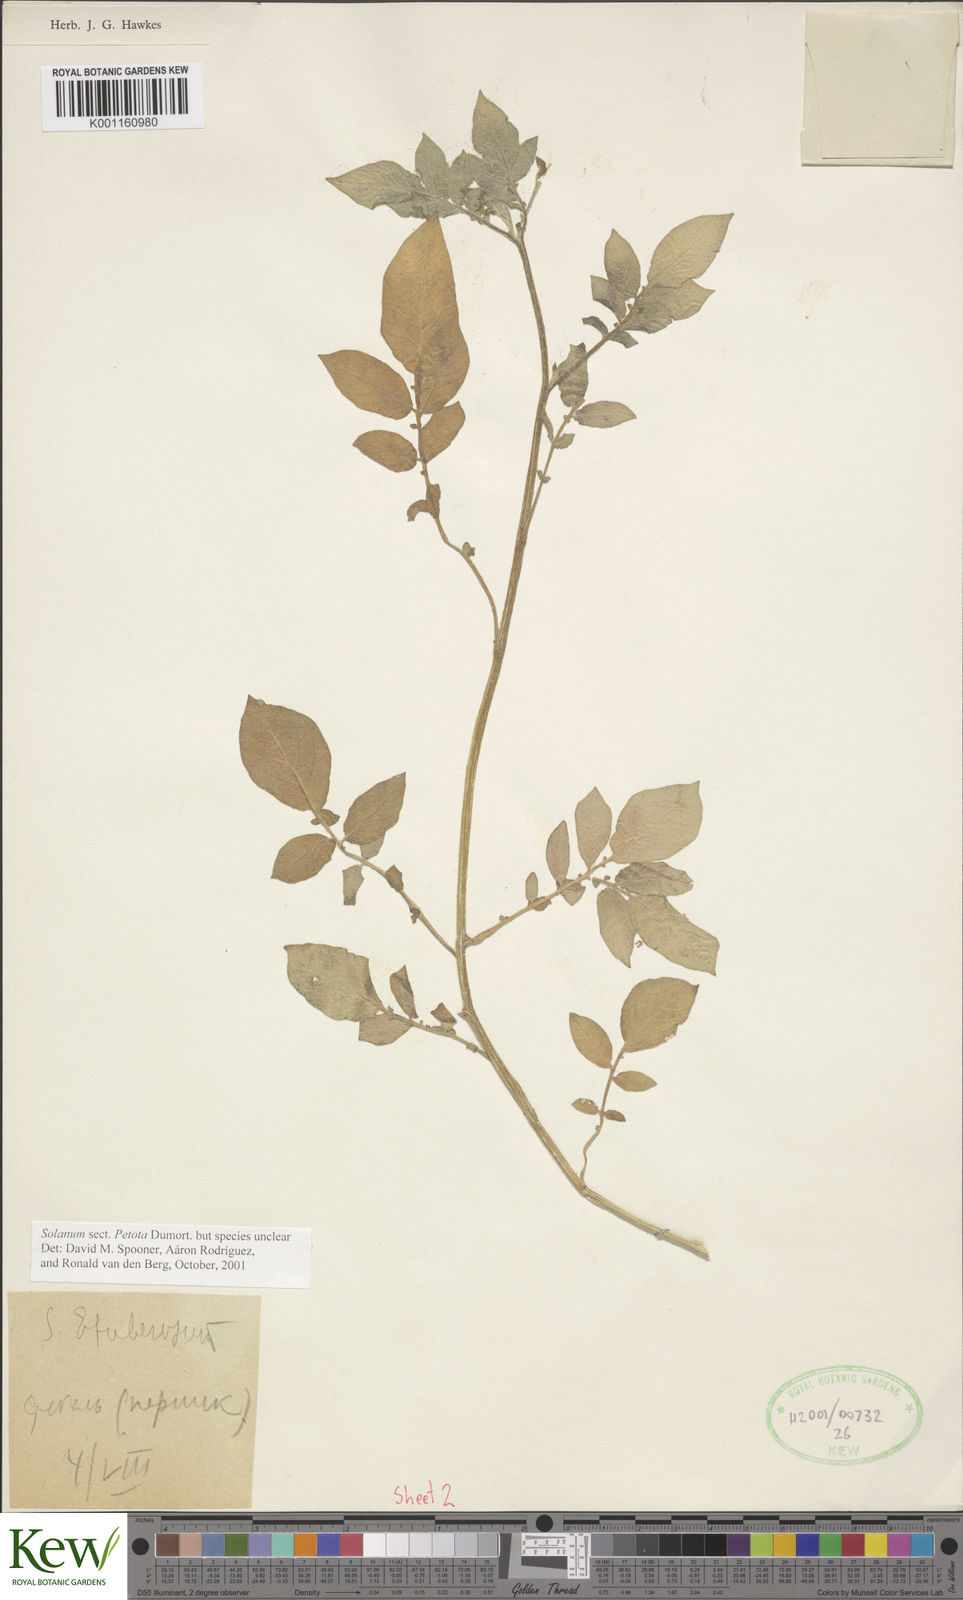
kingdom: Plantae
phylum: Tracheophyta
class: Magnoliopsida
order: Solanales
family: Solanaceae
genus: Solanum
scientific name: Solanum
